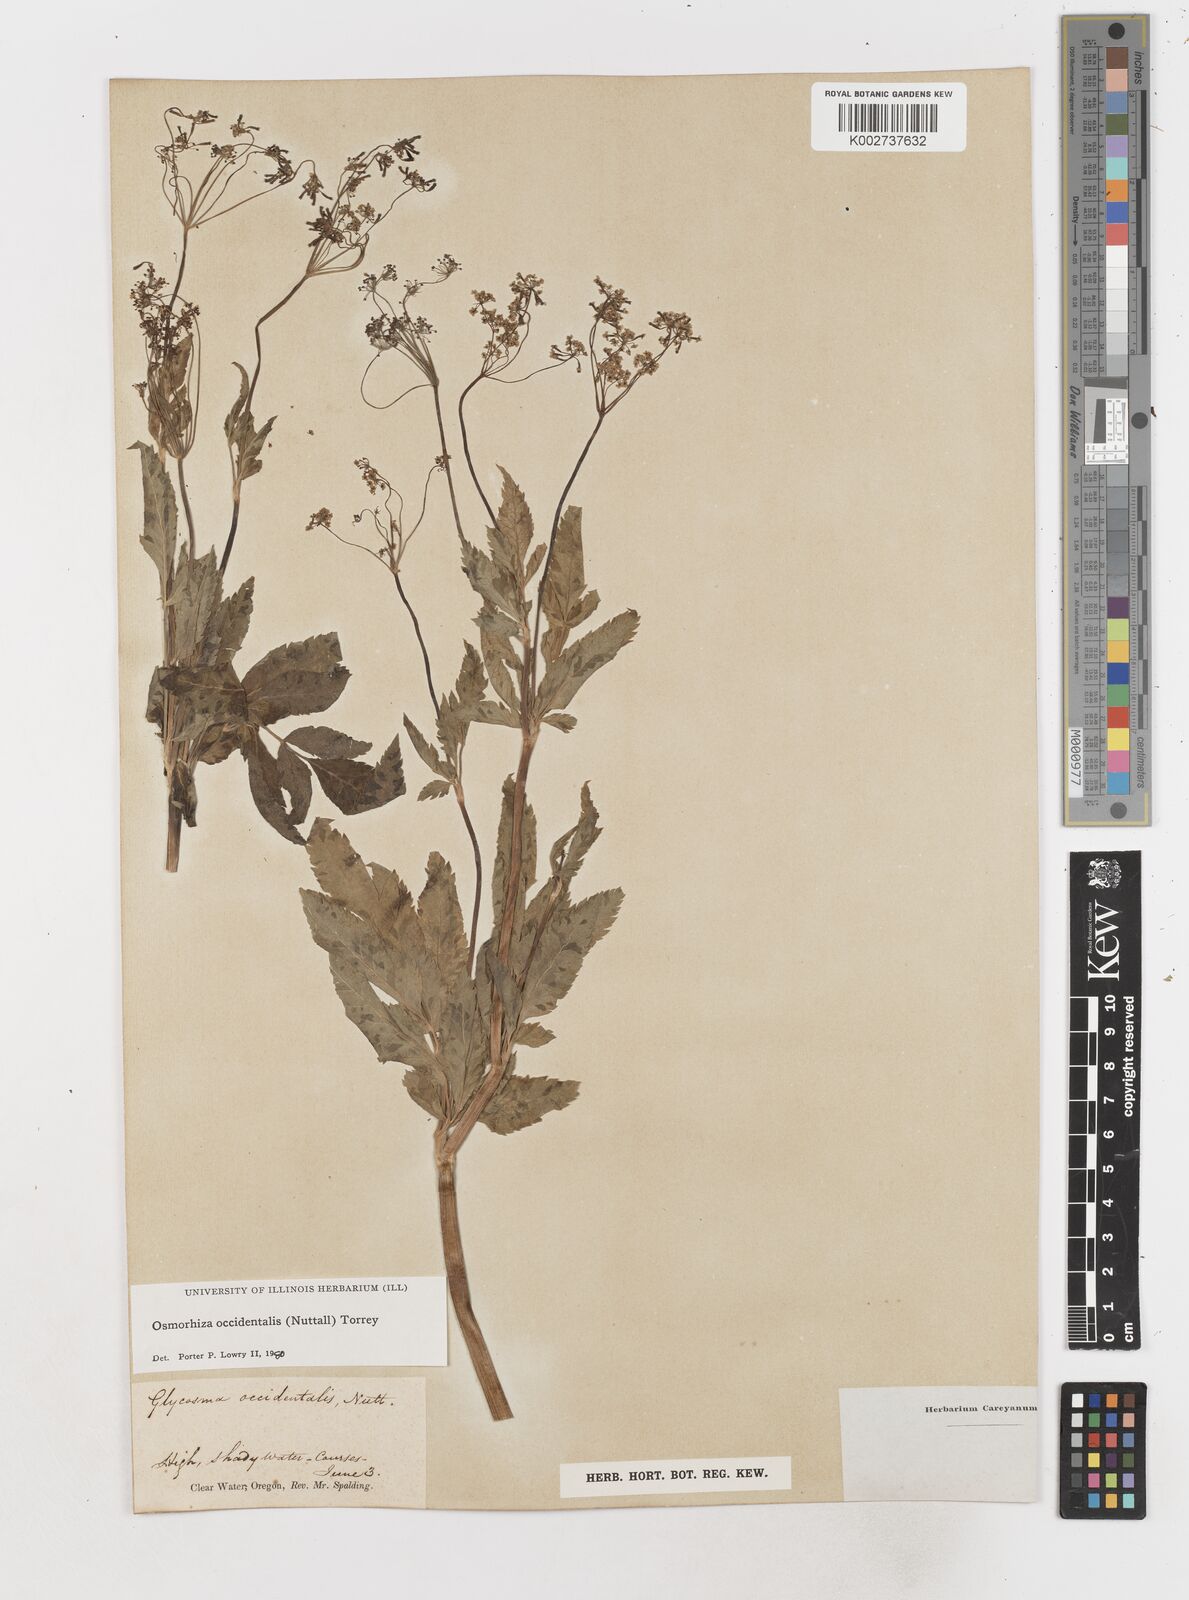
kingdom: Plantae
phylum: Tracheophyta
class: Magnoliopsida
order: Apiales
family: Apiaceae
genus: Osmorhiza
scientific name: Osmorhiza occidentalis
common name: Western sweet cicely
